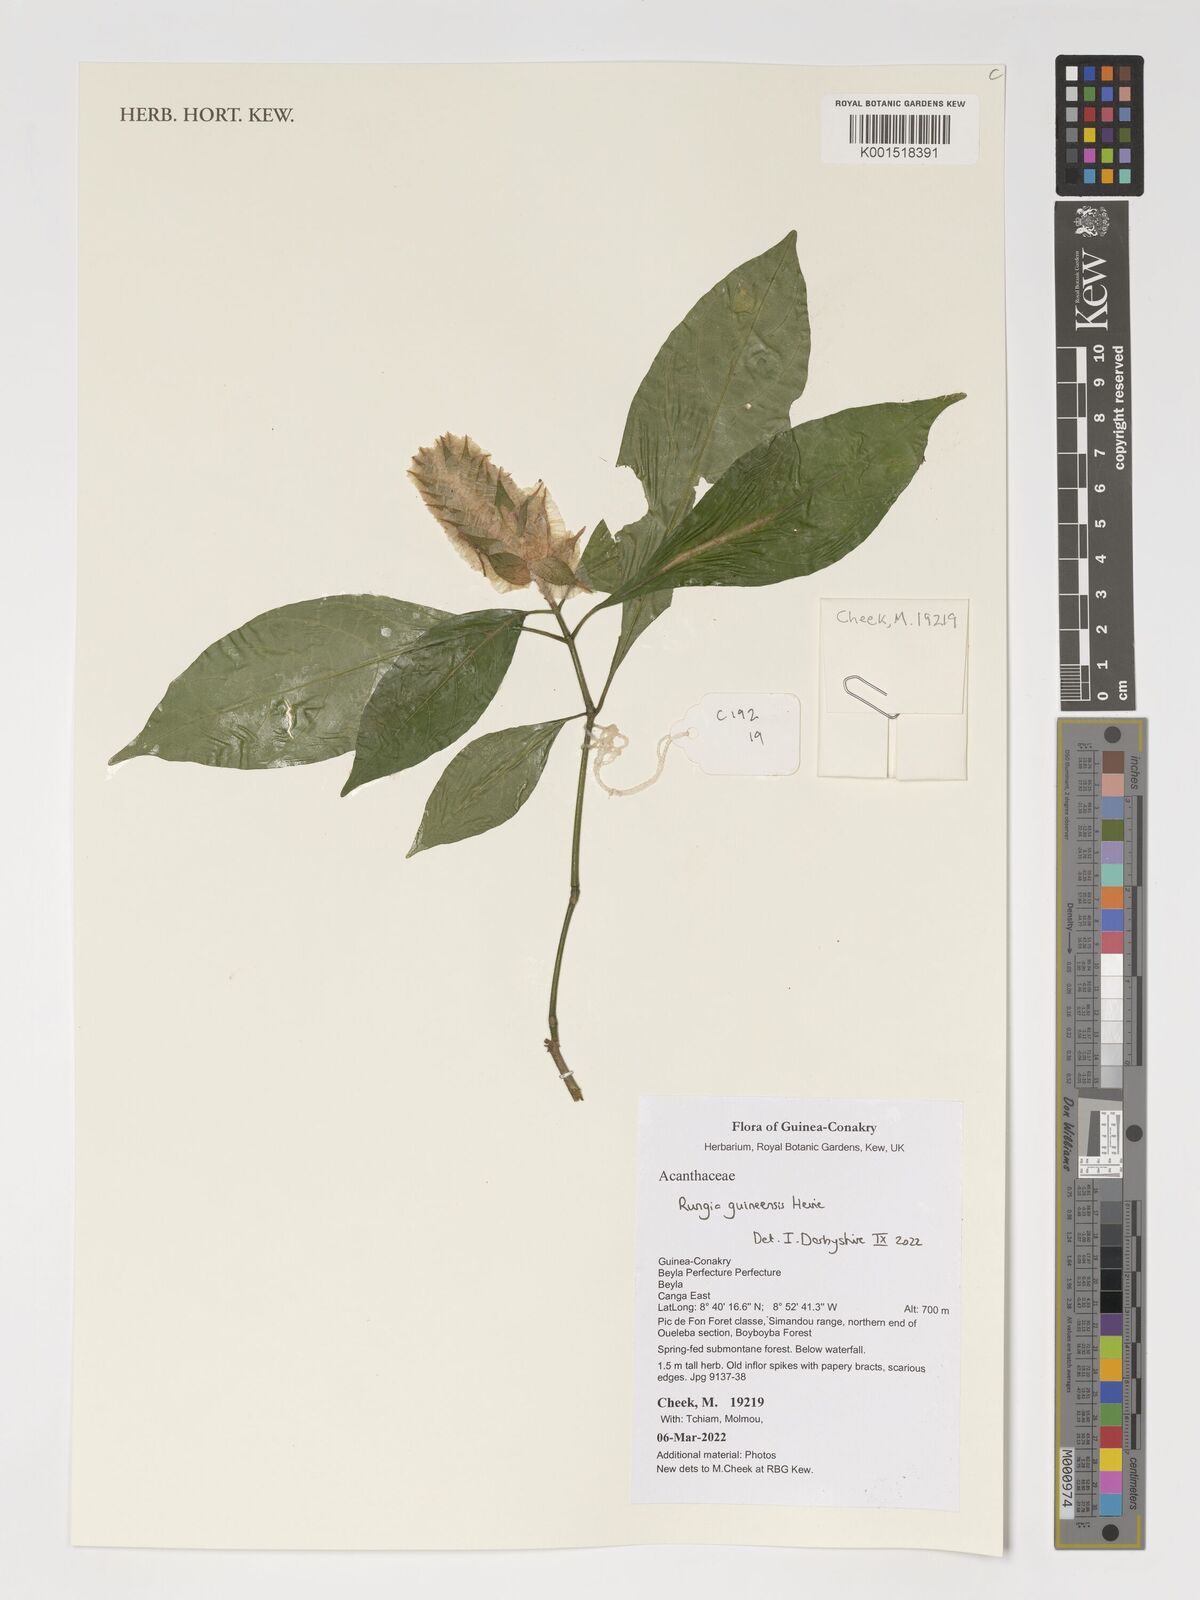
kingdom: Plantae
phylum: Tracheophyta
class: Magnoliopsida
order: Lamiales
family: Acanthaceae
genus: Justicia
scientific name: Justicia grandis
